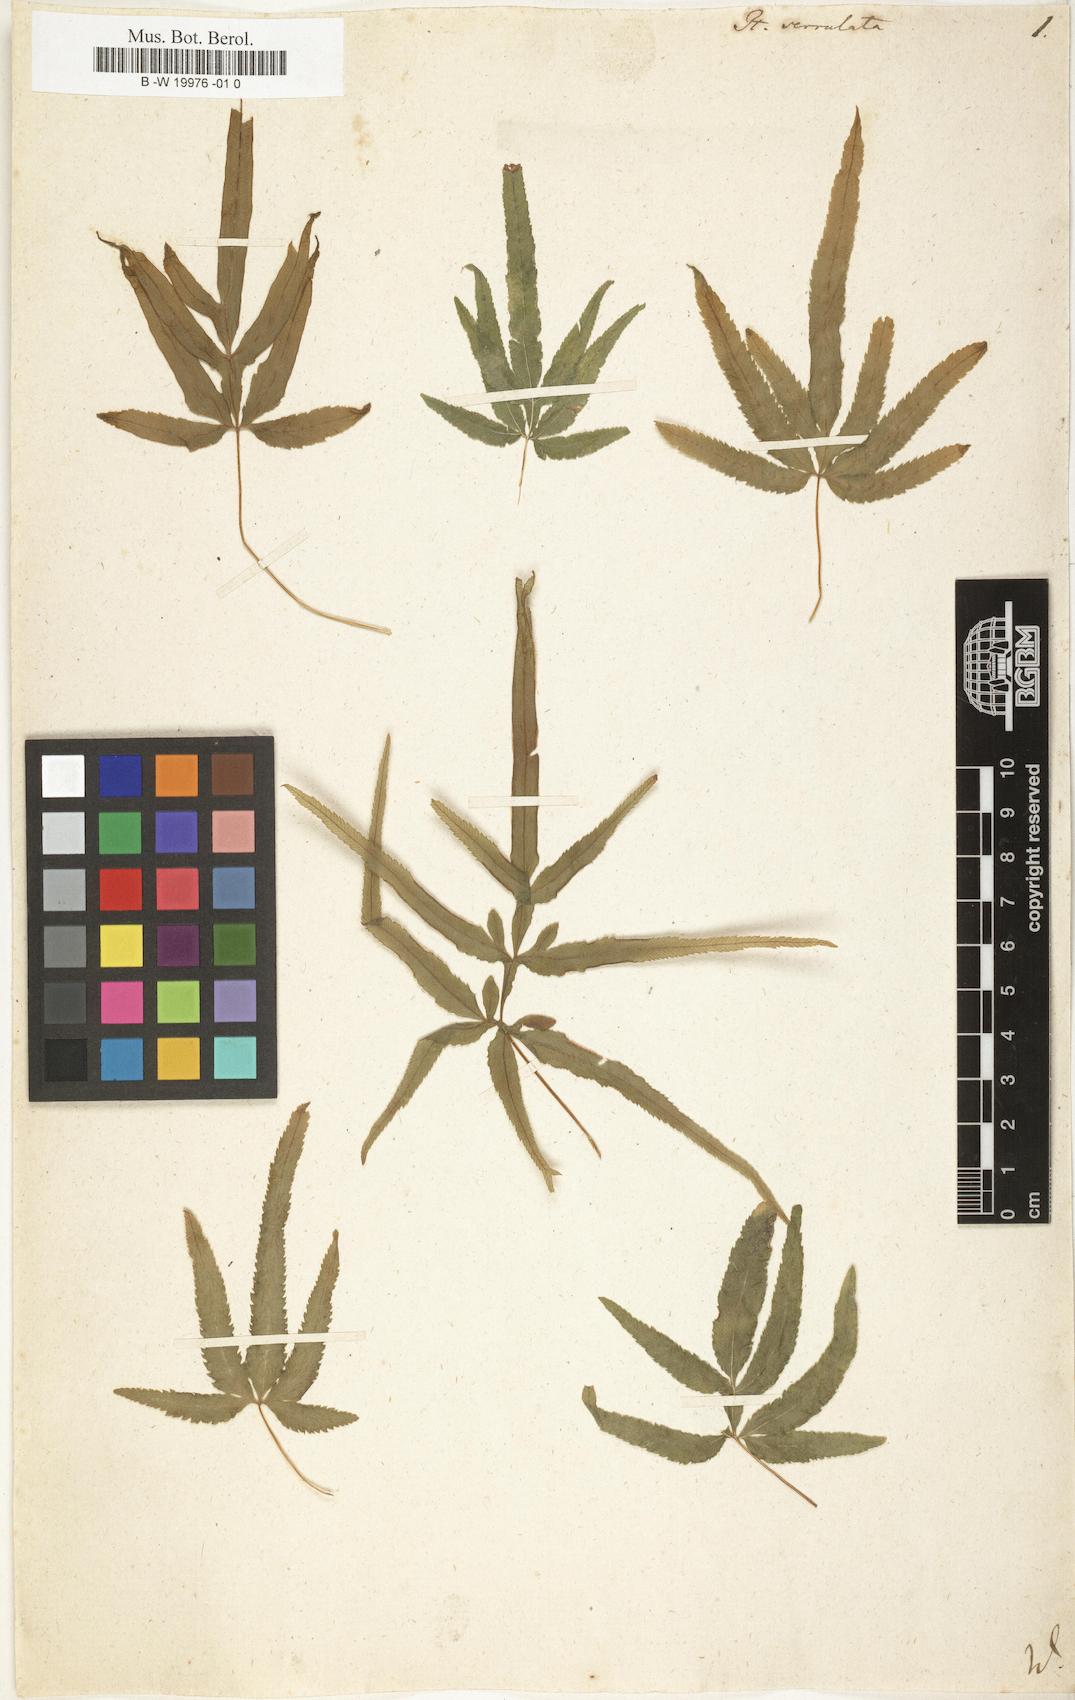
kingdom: Plantae
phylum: Tracheophyta
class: Polypodiopsida
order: Polypodiales
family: Pteridaceae
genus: Pteris
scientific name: Pteris
